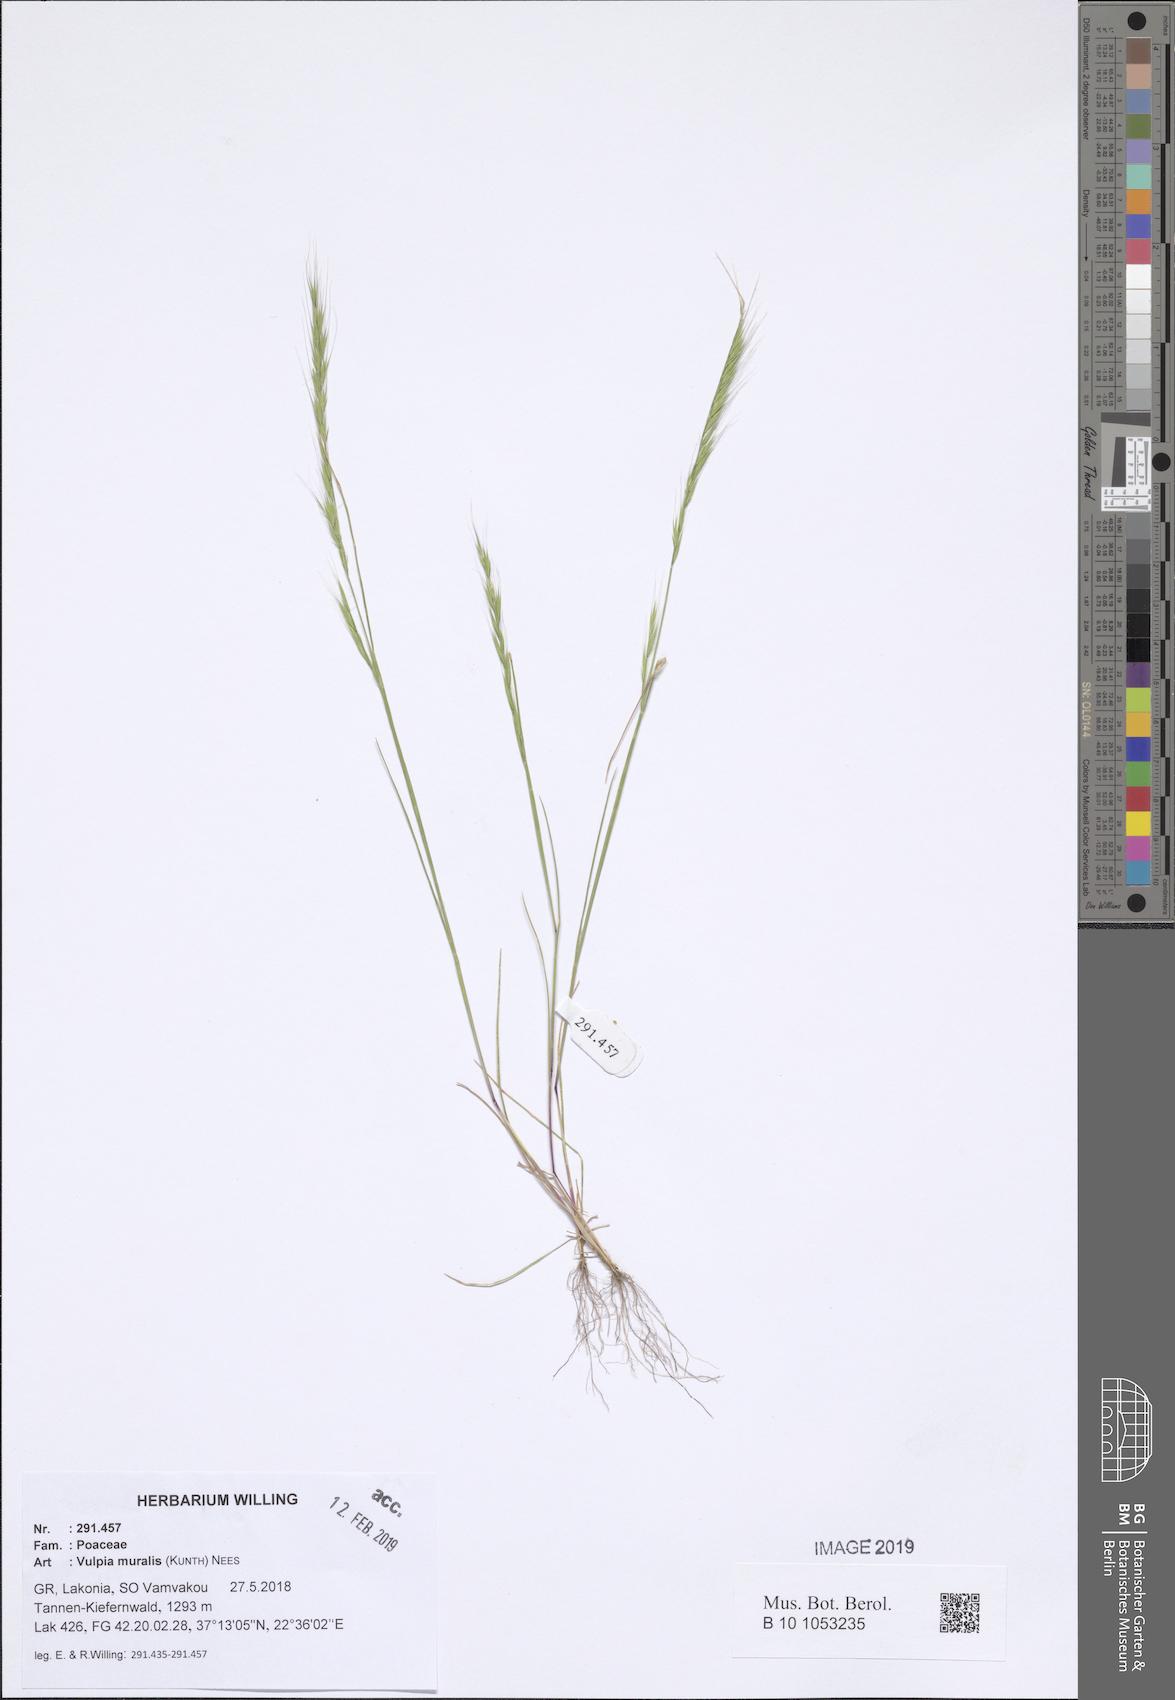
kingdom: Plantae
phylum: Tracheophyta
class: Liliopsida
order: Poales
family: Poaceae
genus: Festuca
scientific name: Festuca muralis
